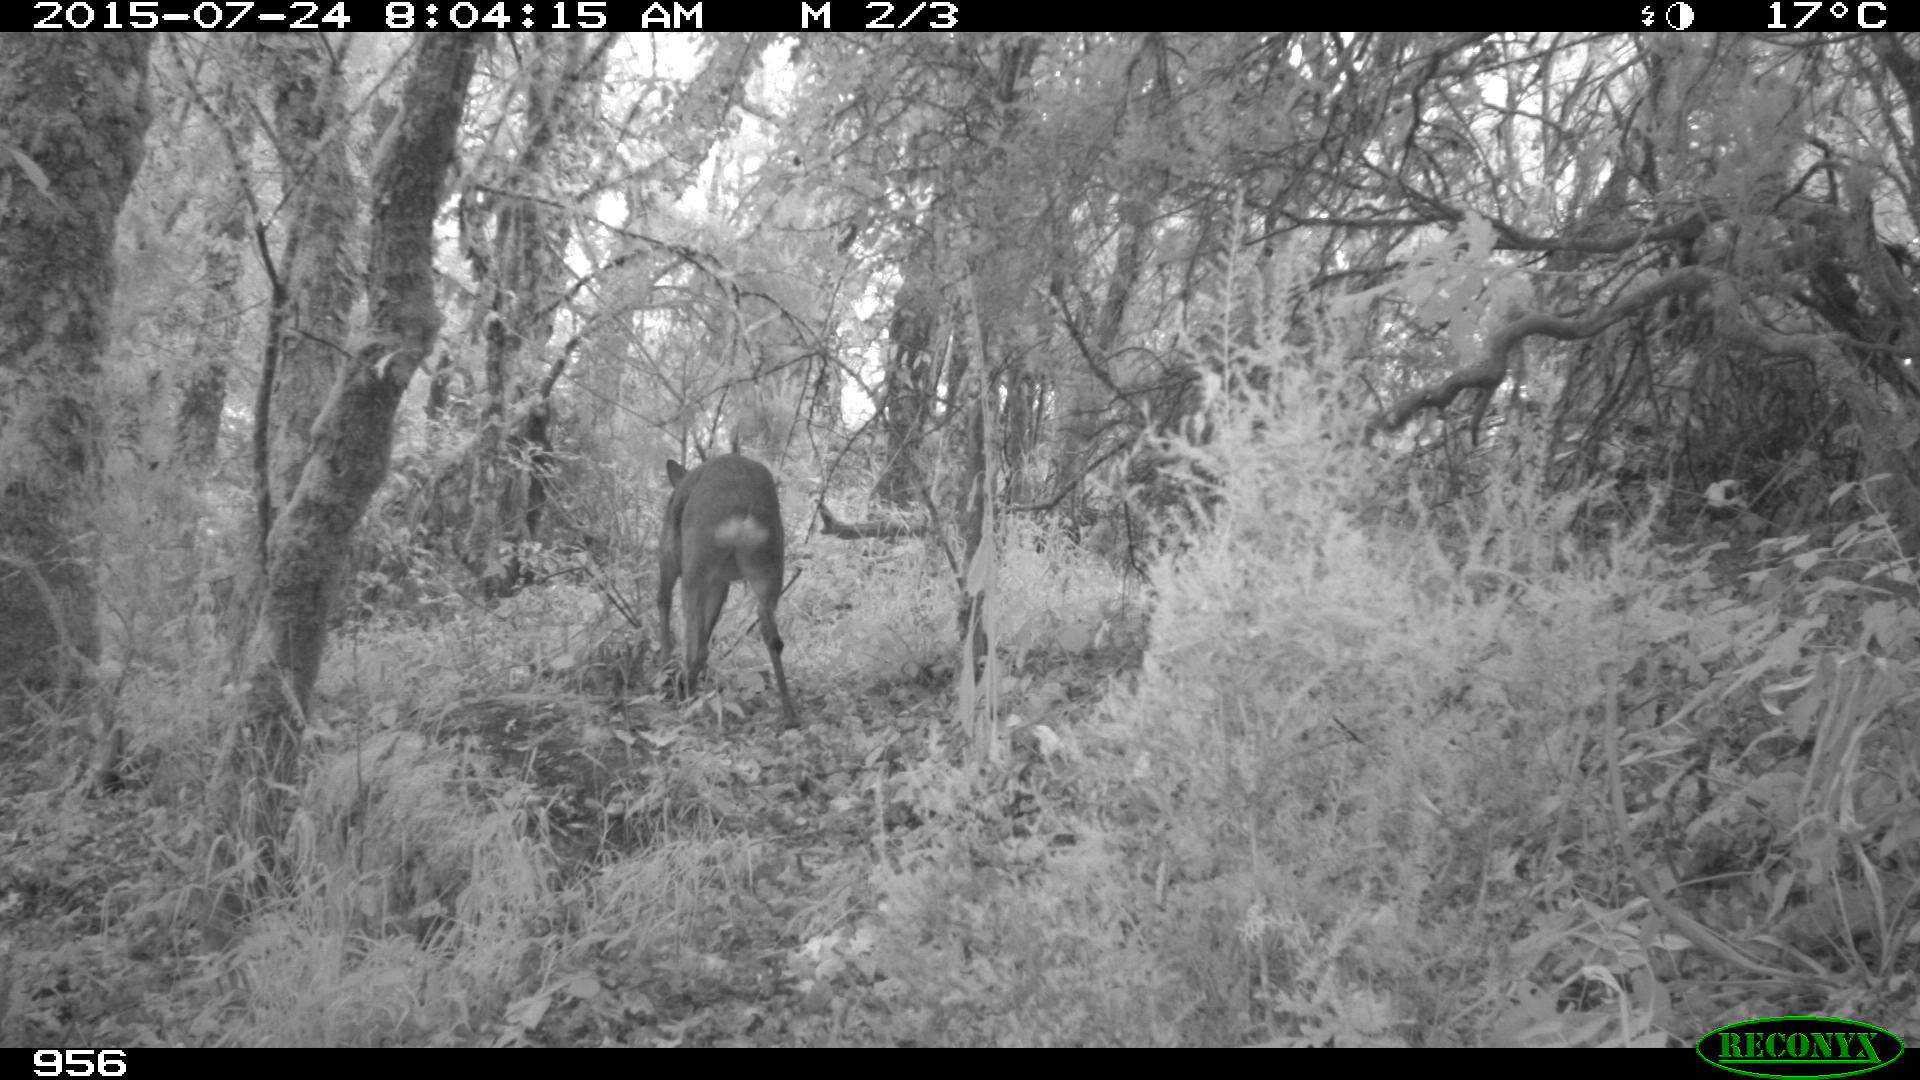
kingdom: Animalia
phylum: Chordata
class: Mammalia
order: Artiodactyla
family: Cervidae
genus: Capreolus
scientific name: Capreolus capreolus
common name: Western roe deer
